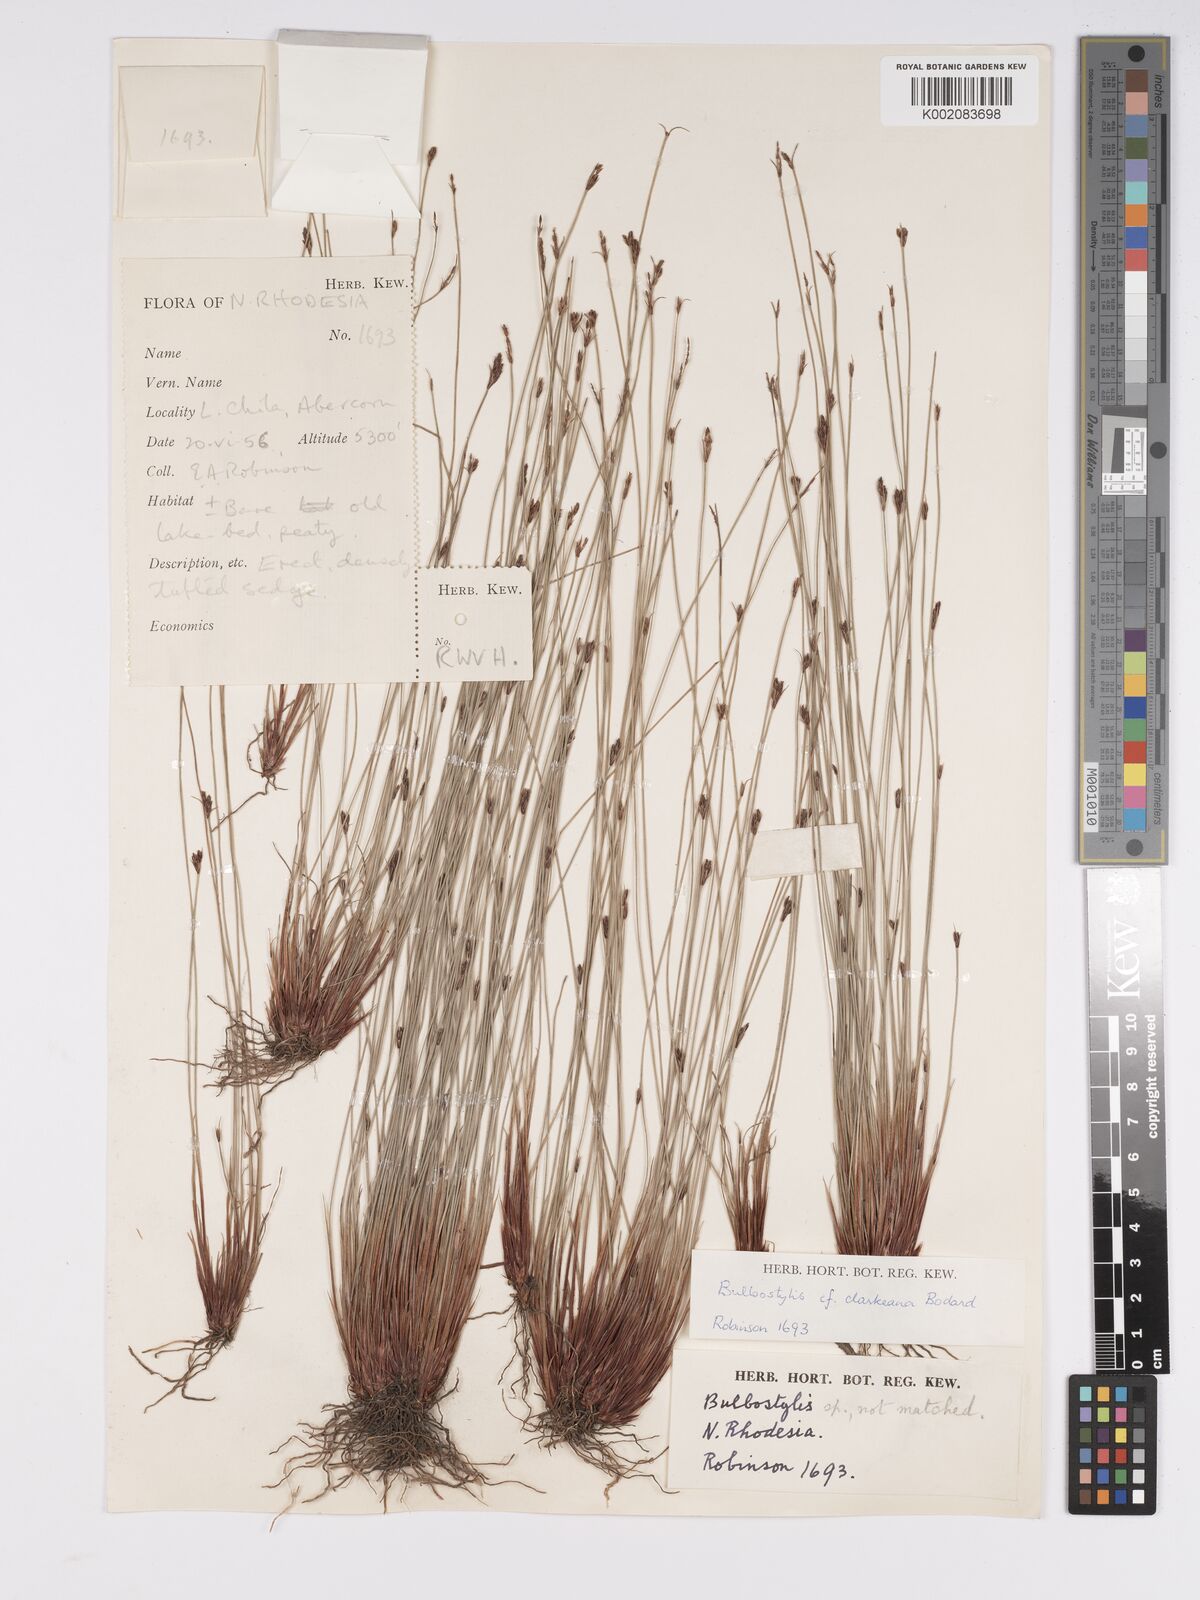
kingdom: Plantae
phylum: Tracheophyta
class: Liliopsida
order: Poales
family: Cyperaceae
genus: Bulbostylis
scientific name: Bulbostylis oritrephes
